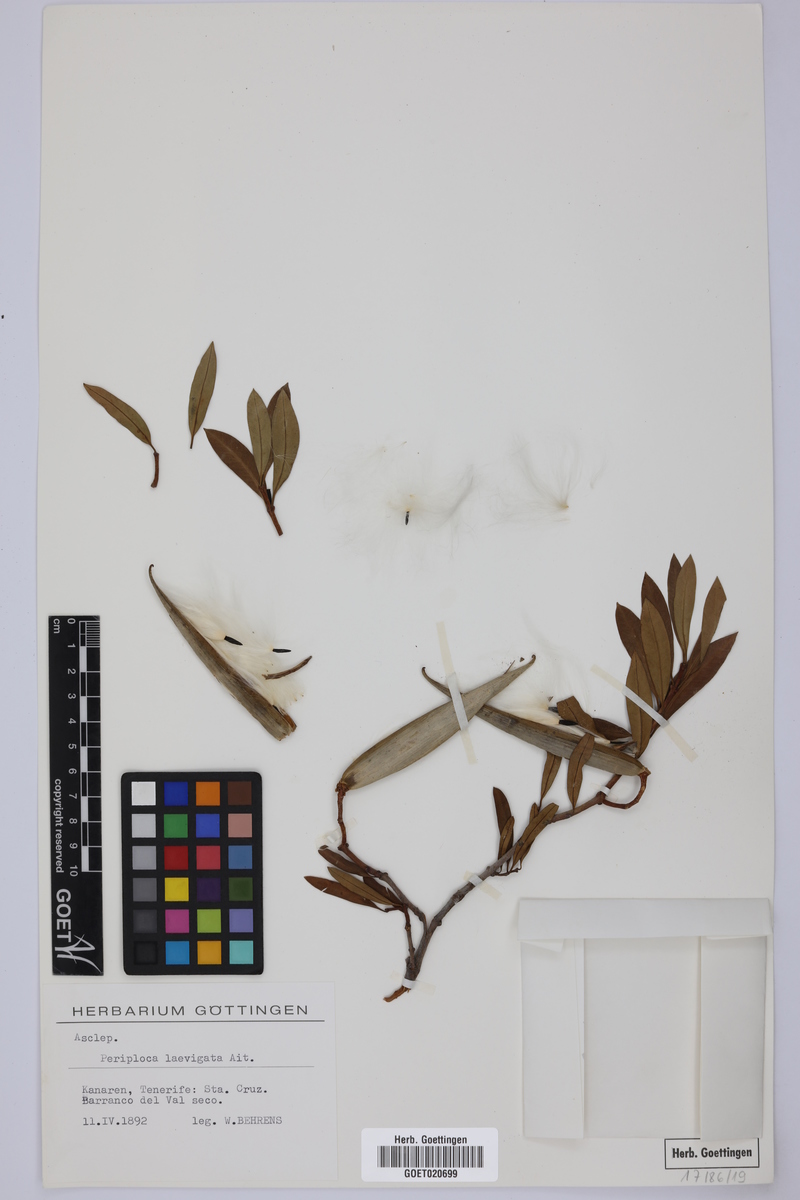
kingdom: Plantae
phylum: Tracheophyta
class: Magnoliopsida
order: Gentianales
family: Apocynaceae
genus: Periploca
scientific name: Periploca laevigata
